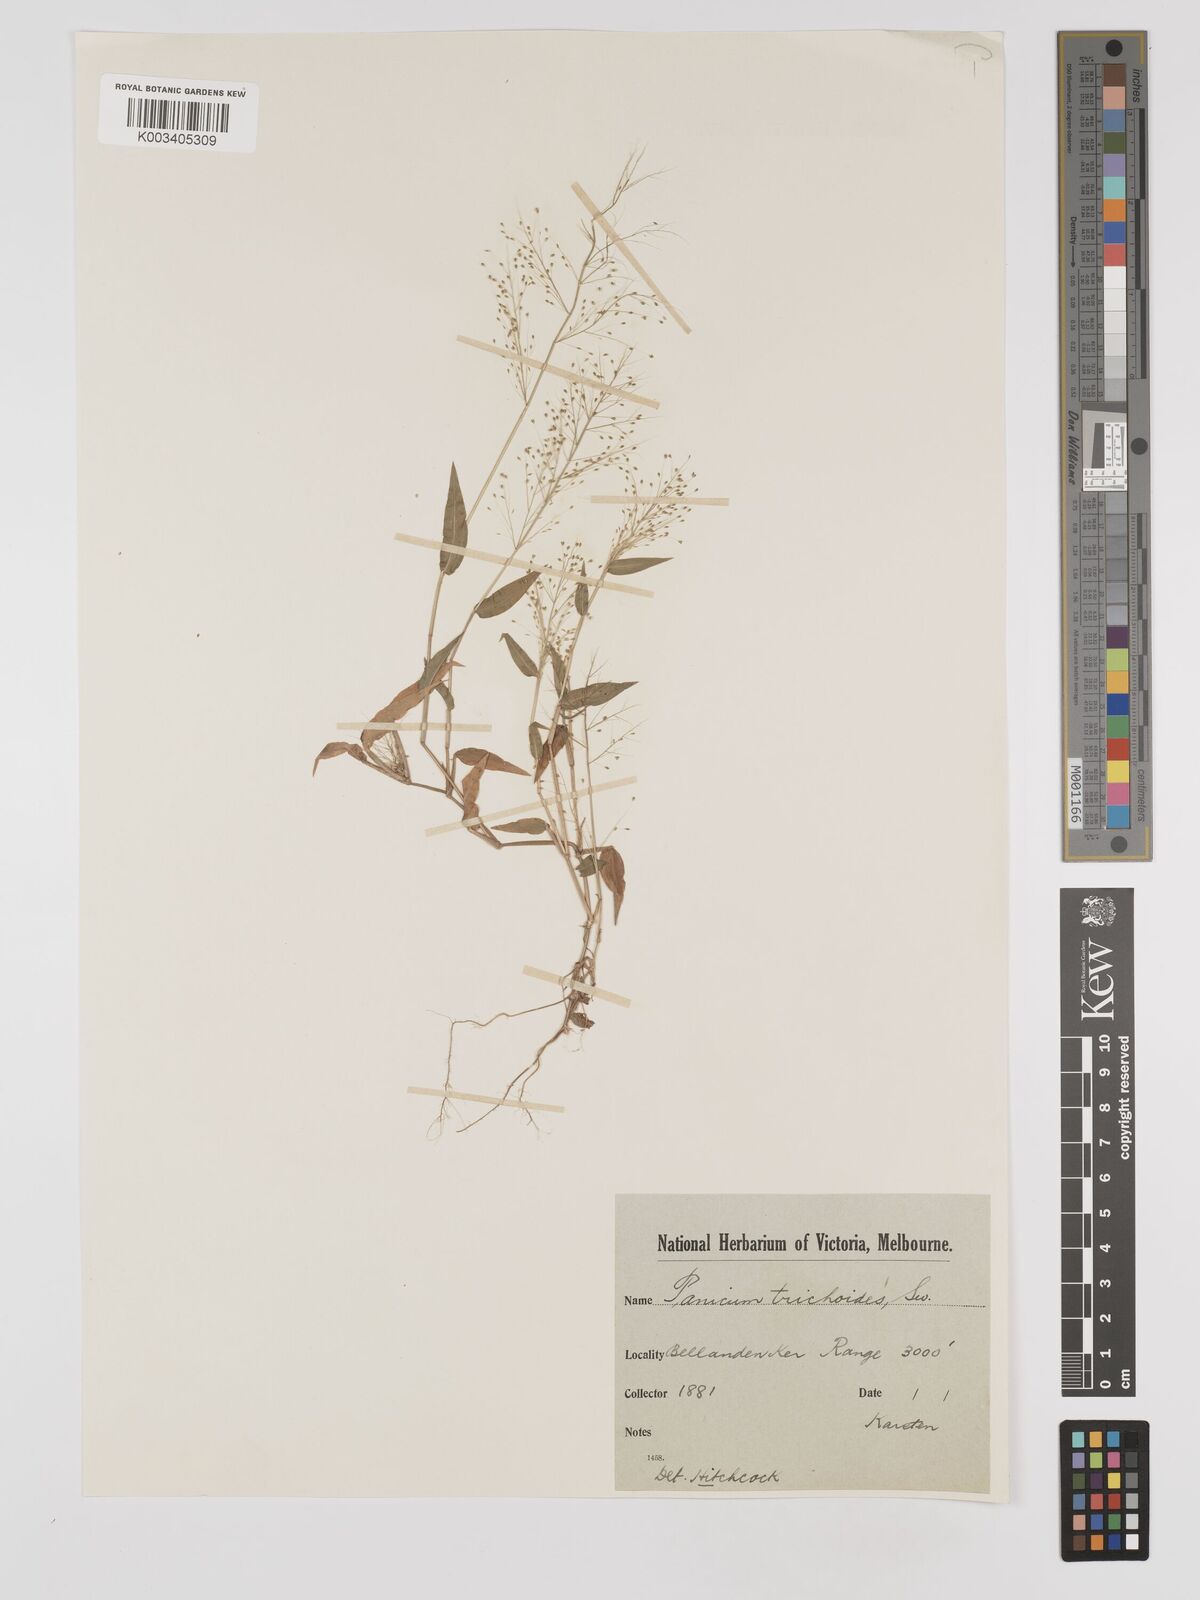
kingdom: Plantae
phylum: Tracheophyta
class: Liliopsida
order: Poales
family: Poaceae
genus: Panicum
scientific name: Panicum trichoides
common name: Tickle grass
